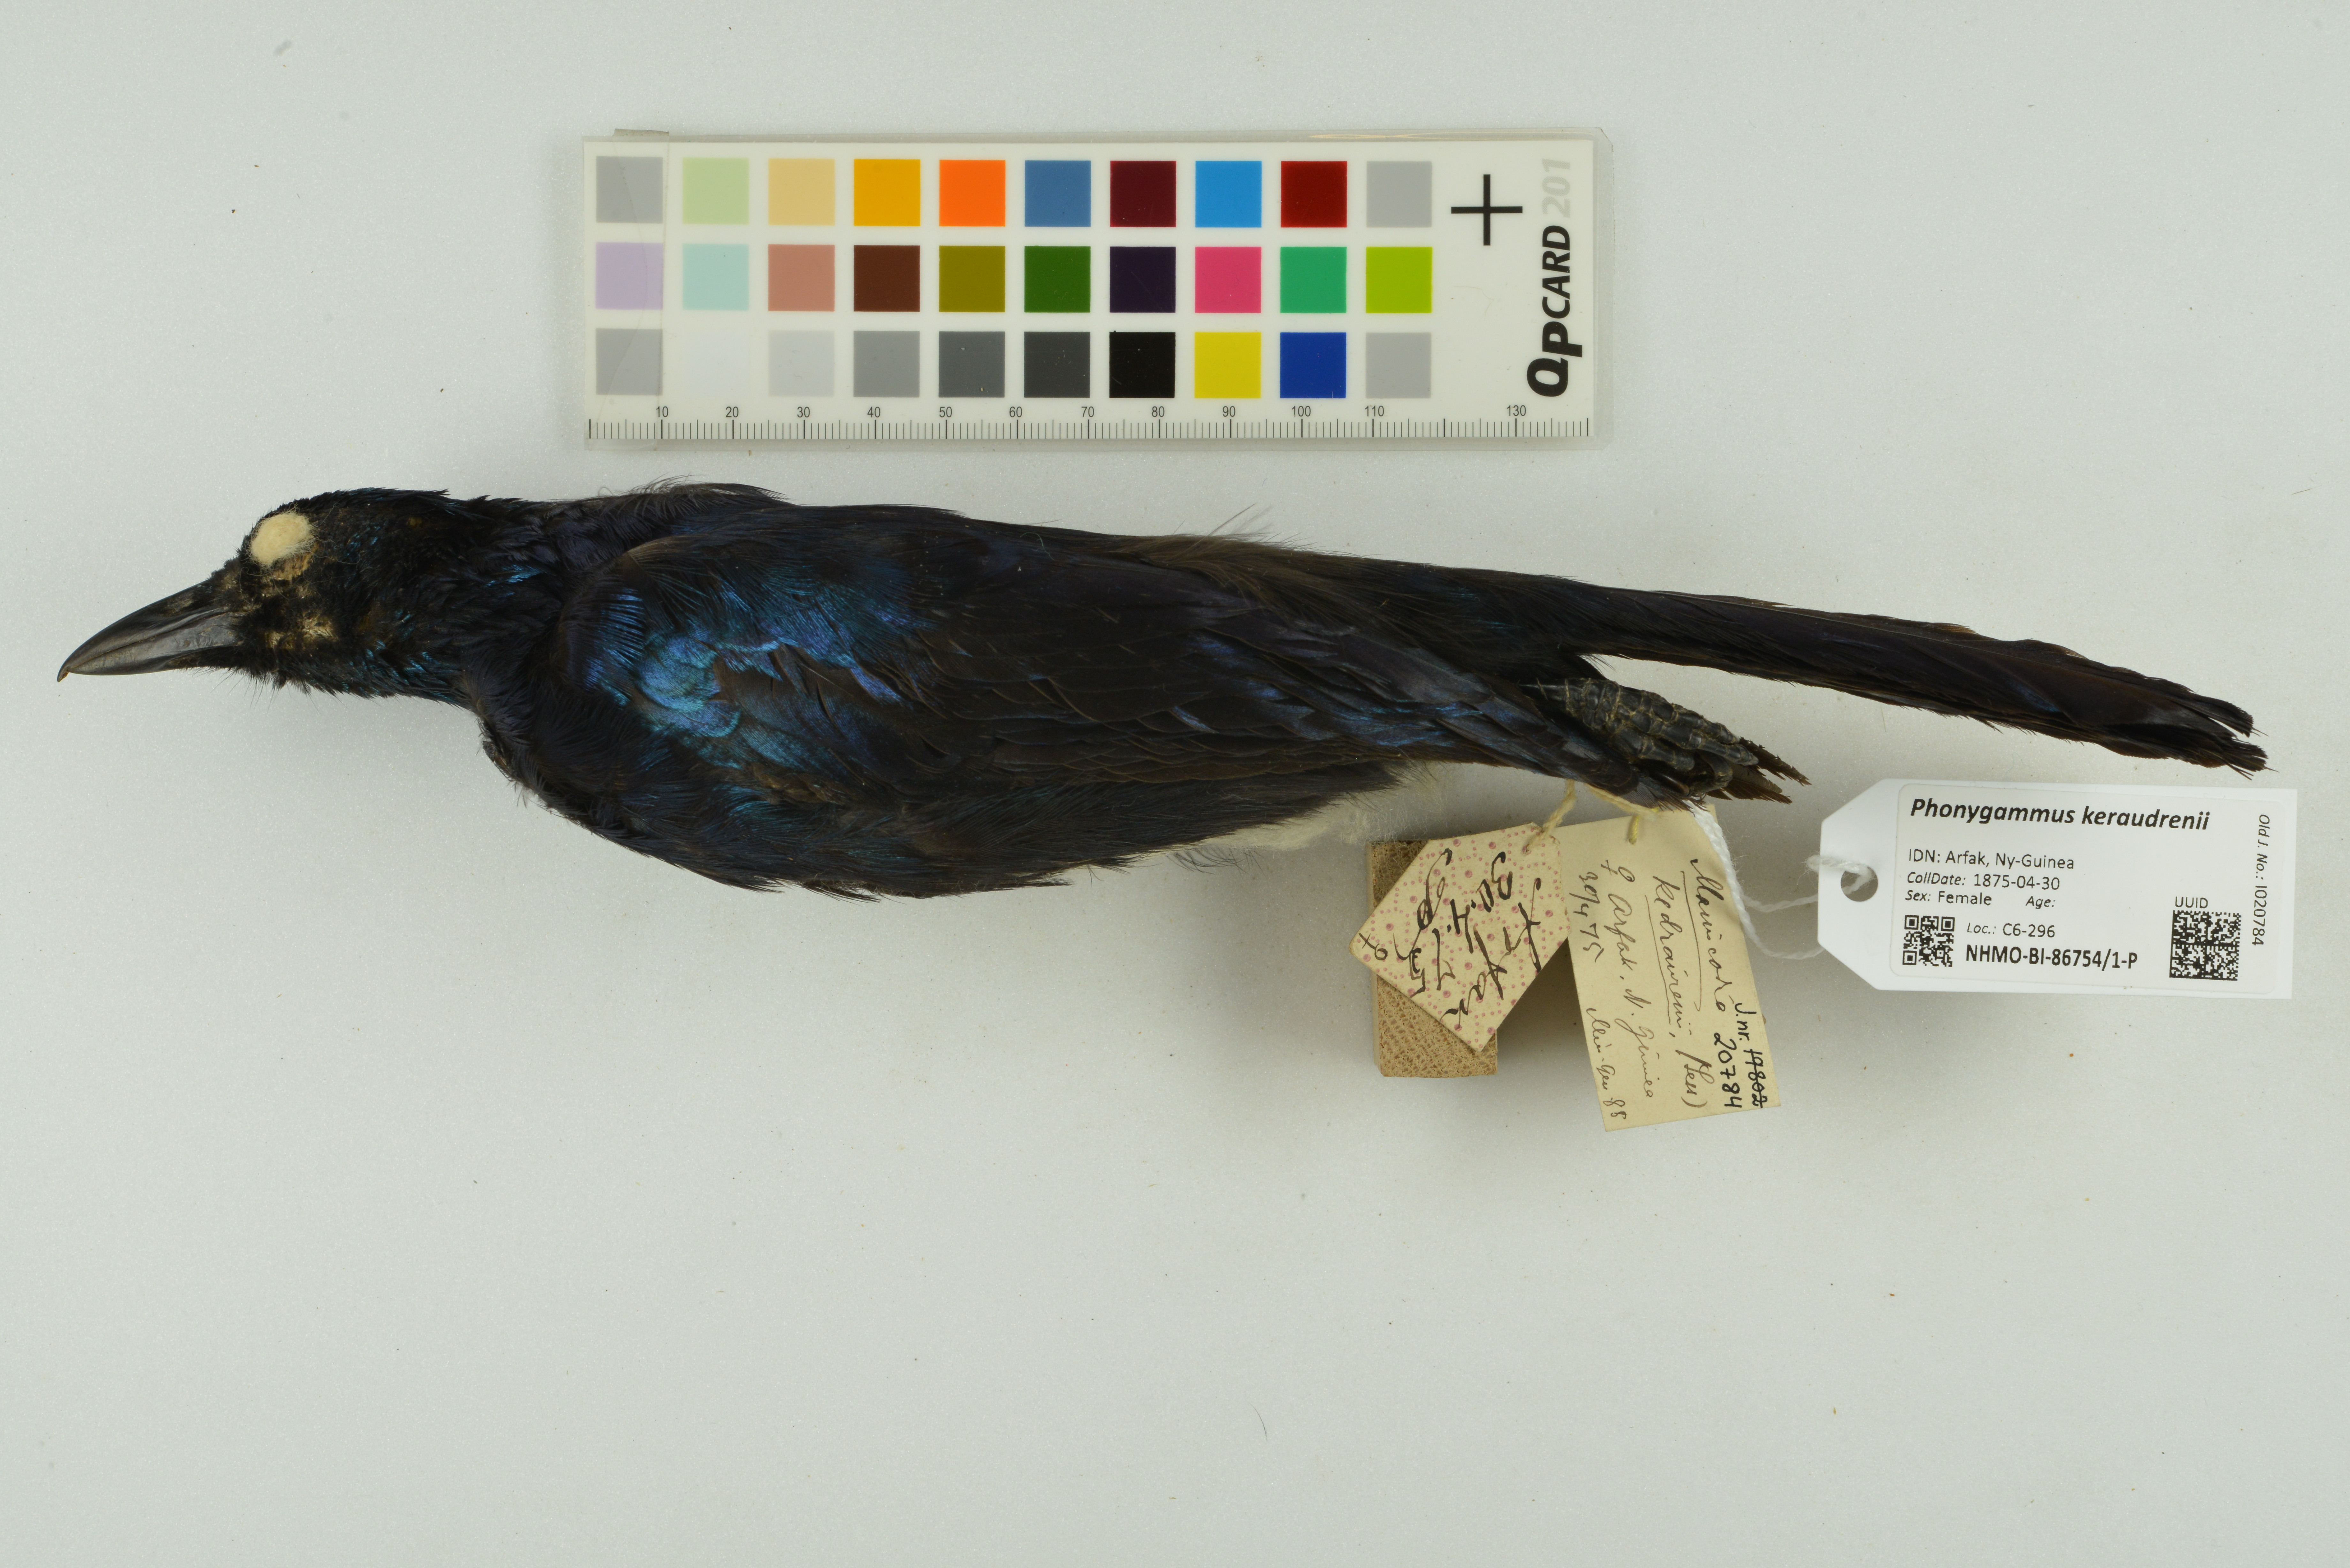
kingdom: Animalia
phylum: Chordata
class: Aves
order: Passeriformes
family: Paradisaeidae
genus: Phonygammus
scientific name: Phonygammus keraudrenii
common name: Trumpet manucode
